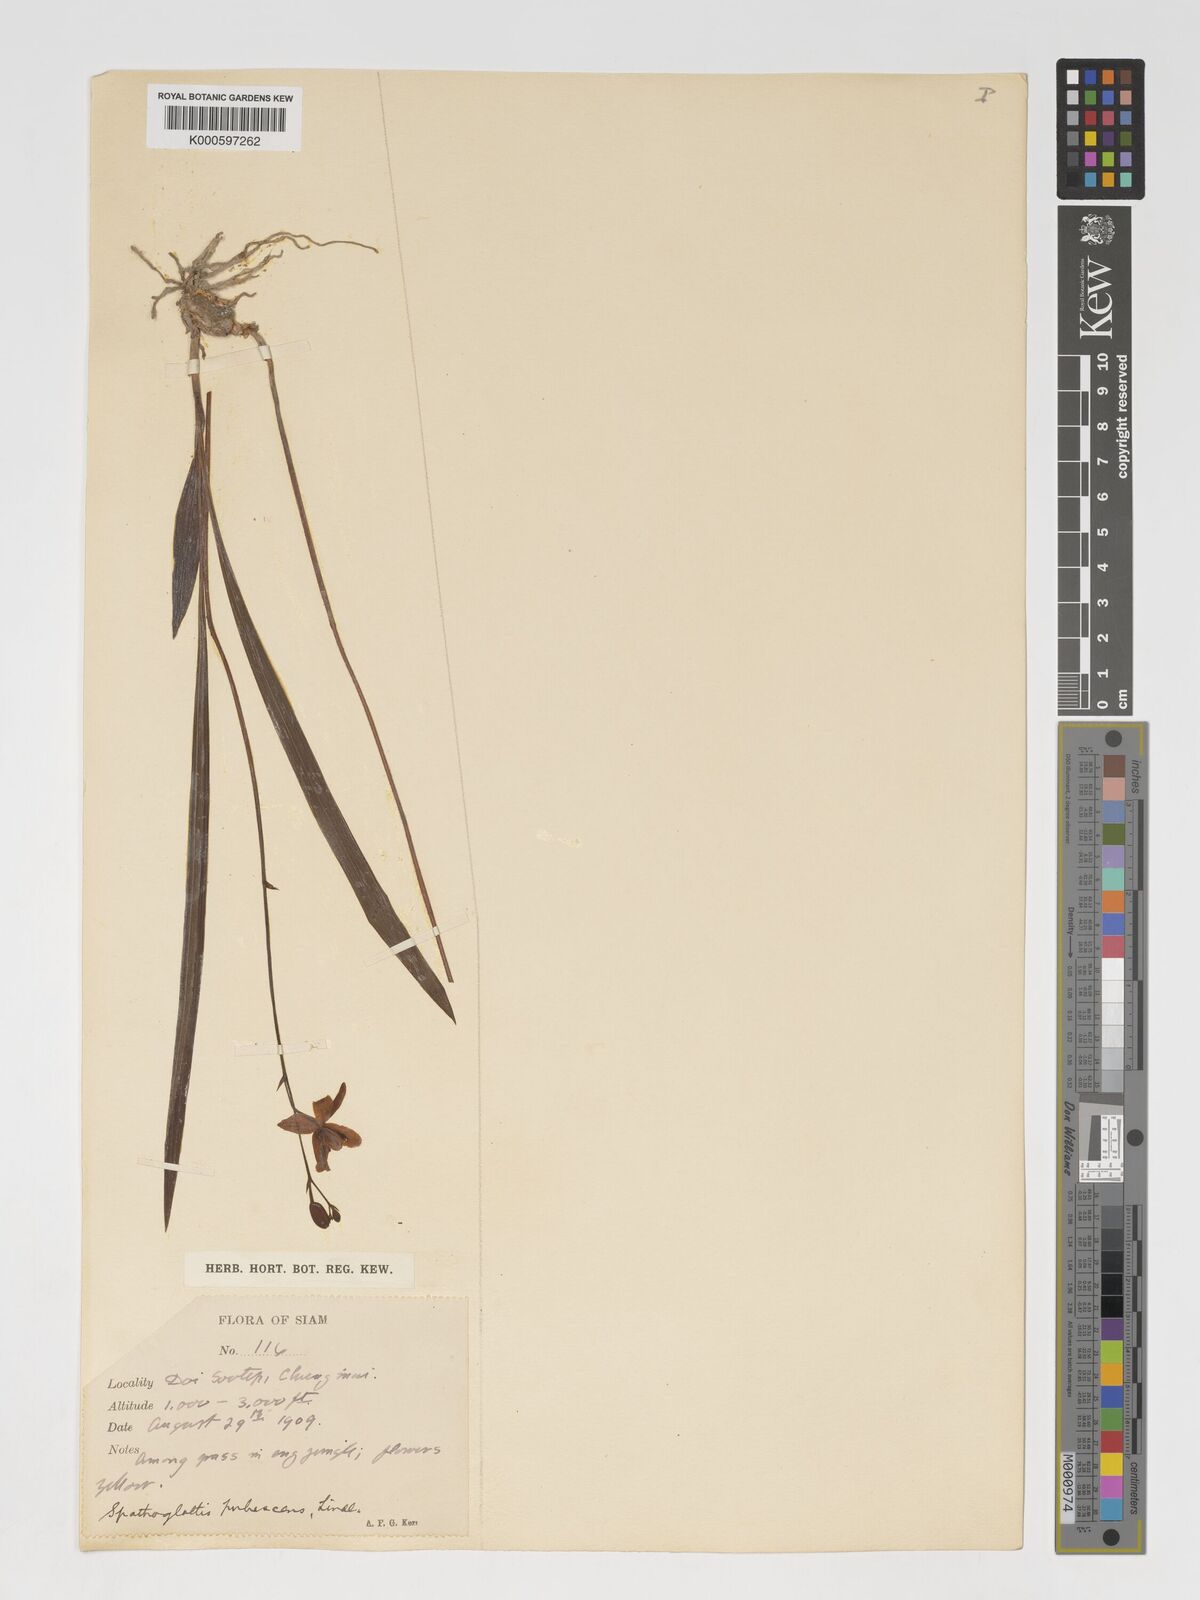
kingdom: Plantae
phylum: Tracheophyta
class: Liliopsida
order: Asparagales
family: Orchidaceae
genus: Spathoglottis
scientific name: Spathoglottis pubescens
